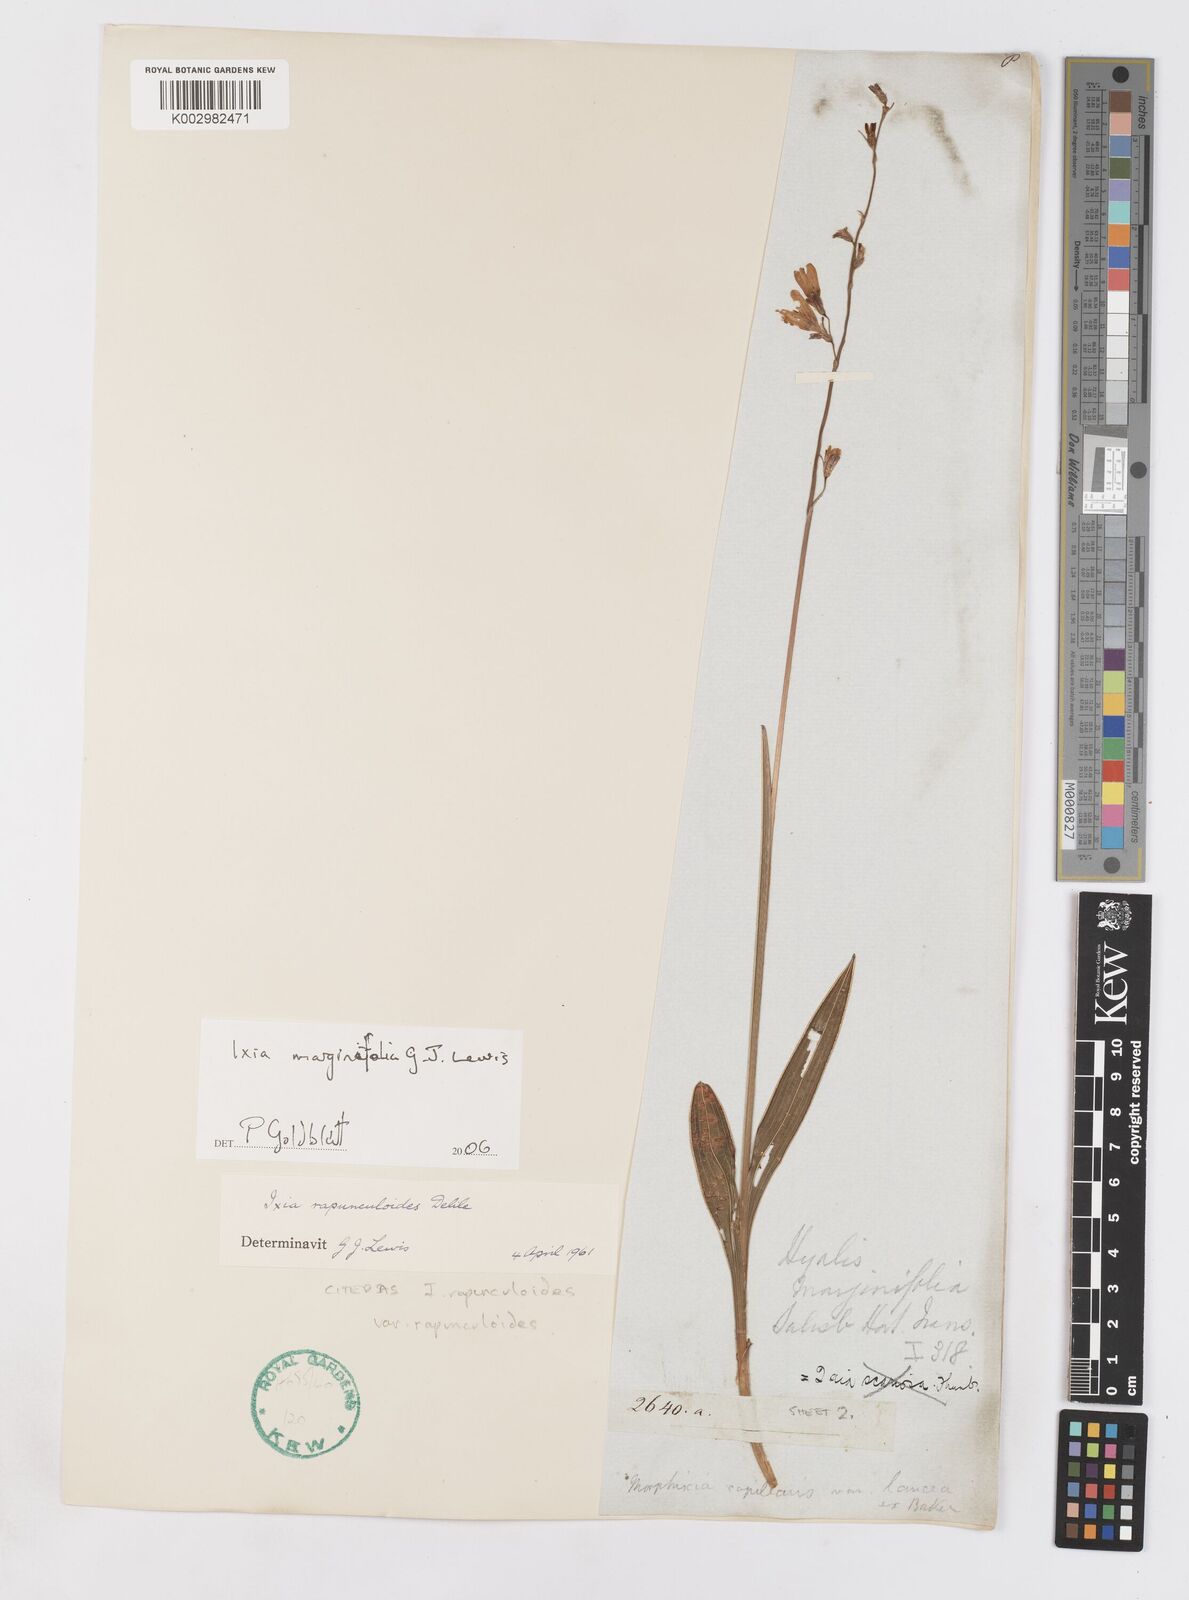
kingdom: Plantae
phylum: Tracheophyta
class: Liliopsida
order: Asparagales
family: Iridaceae
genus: Ixia
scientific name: Ixia marginifolia
